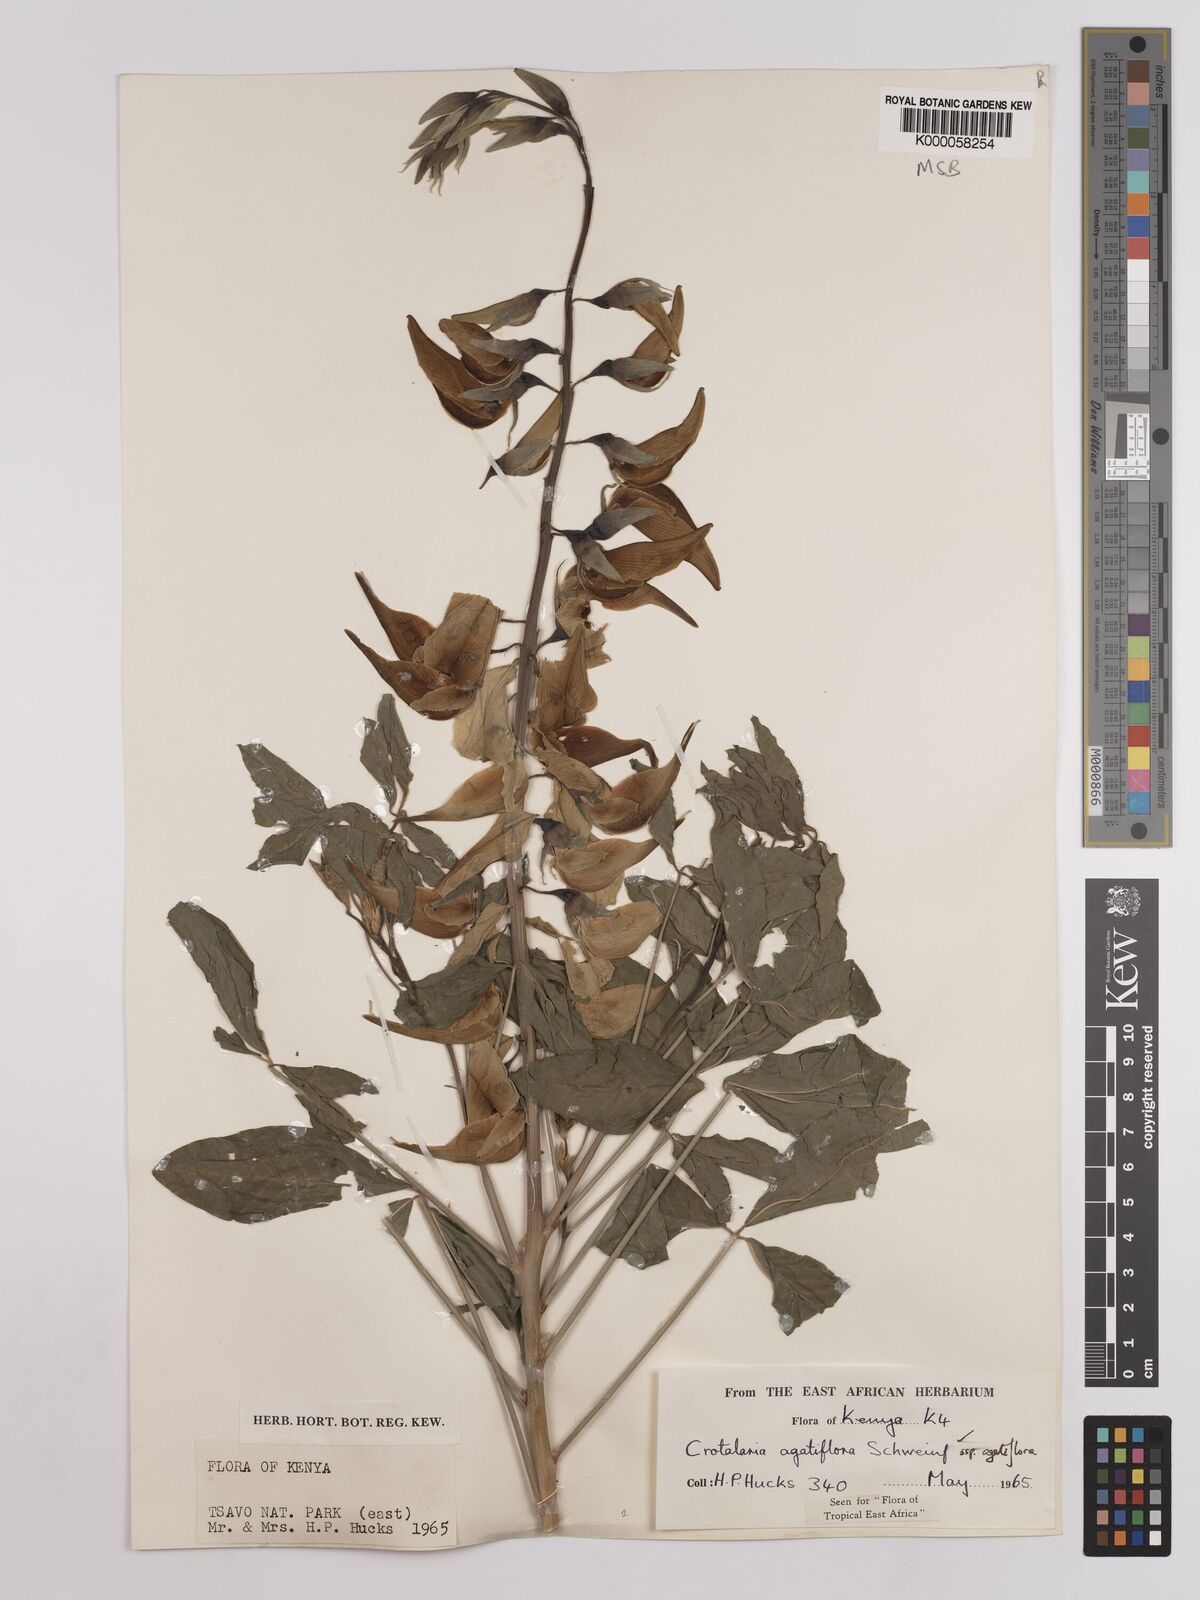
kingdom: Plantae
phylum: Tracheophyta
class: Magnoliopsida
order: Fabales
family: Fabaceae
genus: Crotalaria
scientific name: Crotalaria
